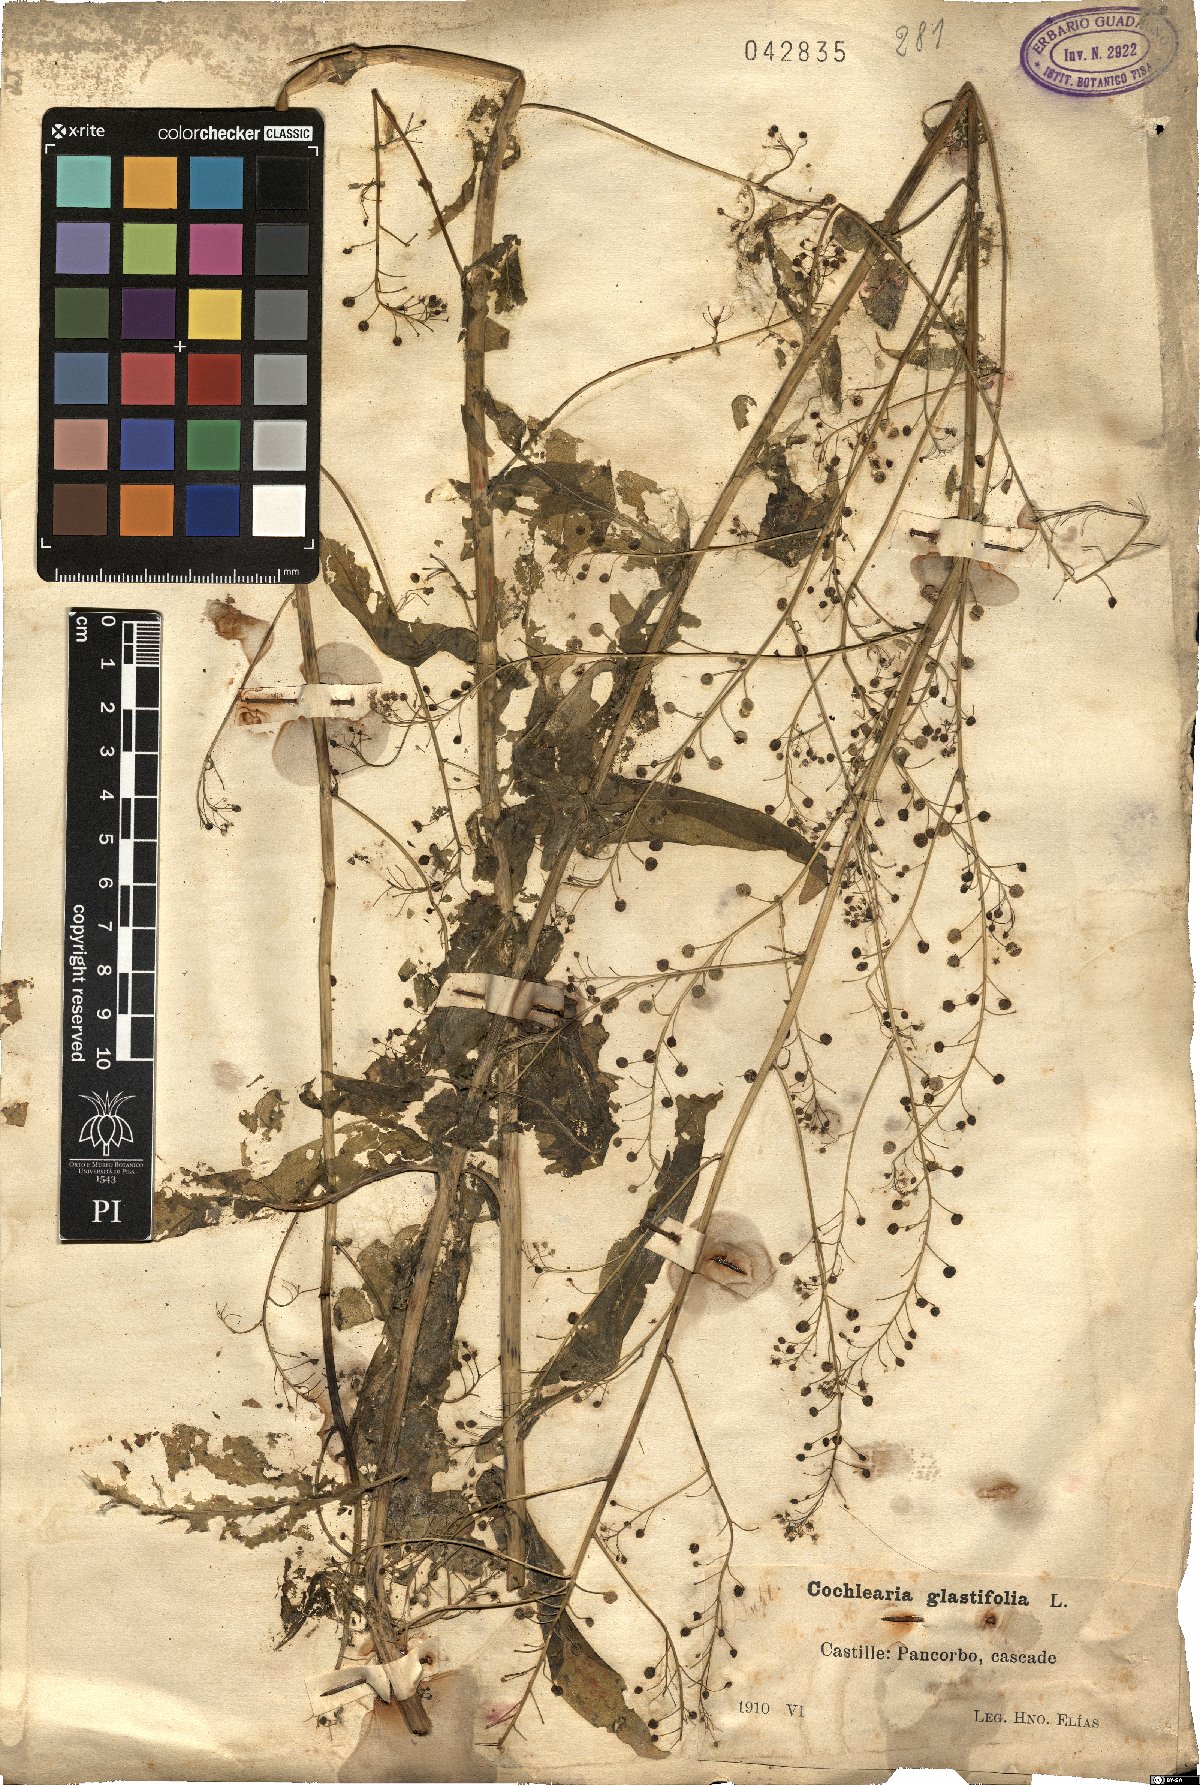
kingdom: Plantae
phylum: Tracheophyta
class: Magnoliopsida
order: Brassicales
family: Brassicaceae
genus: Ionopsidium
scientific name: Ionopsidium glastifolium
